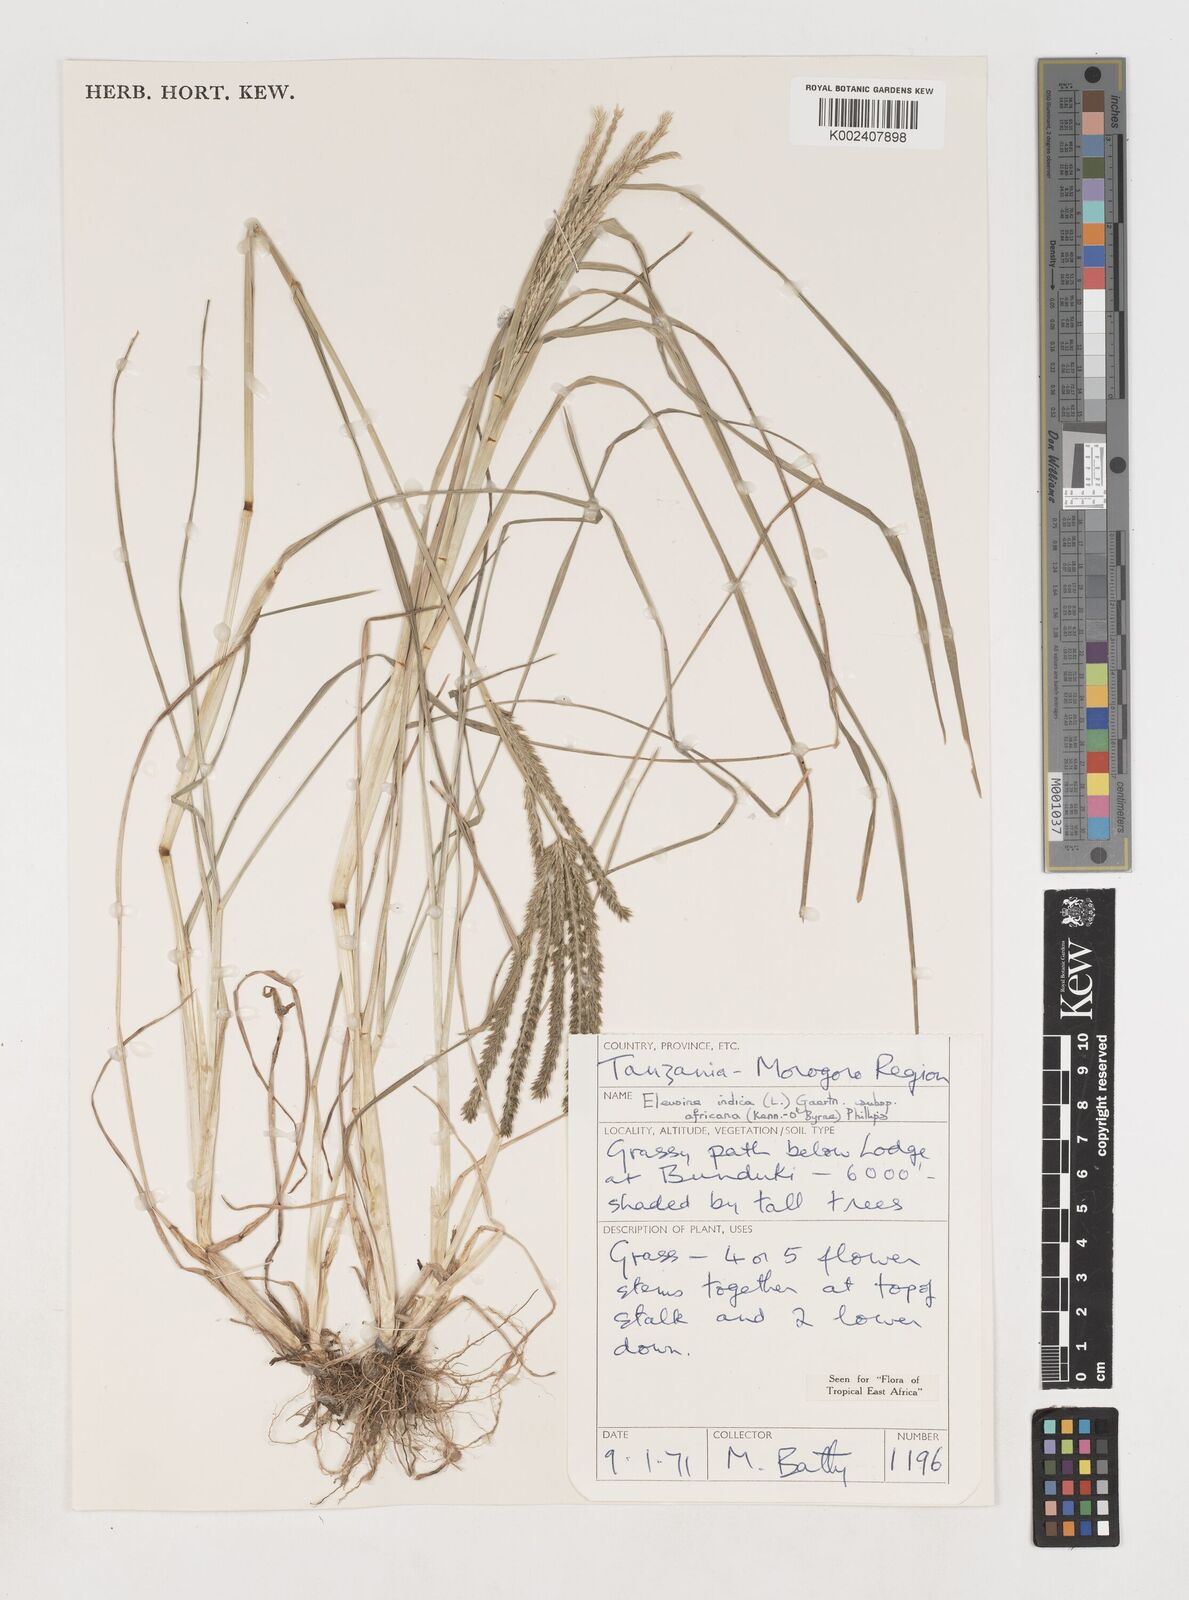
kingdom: Plantae
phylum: Tracheophyta
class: Liliopsida
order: Poales
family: Poaceae
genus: Eleusine
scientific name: Eleusine africana
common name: Wild african finger millet
